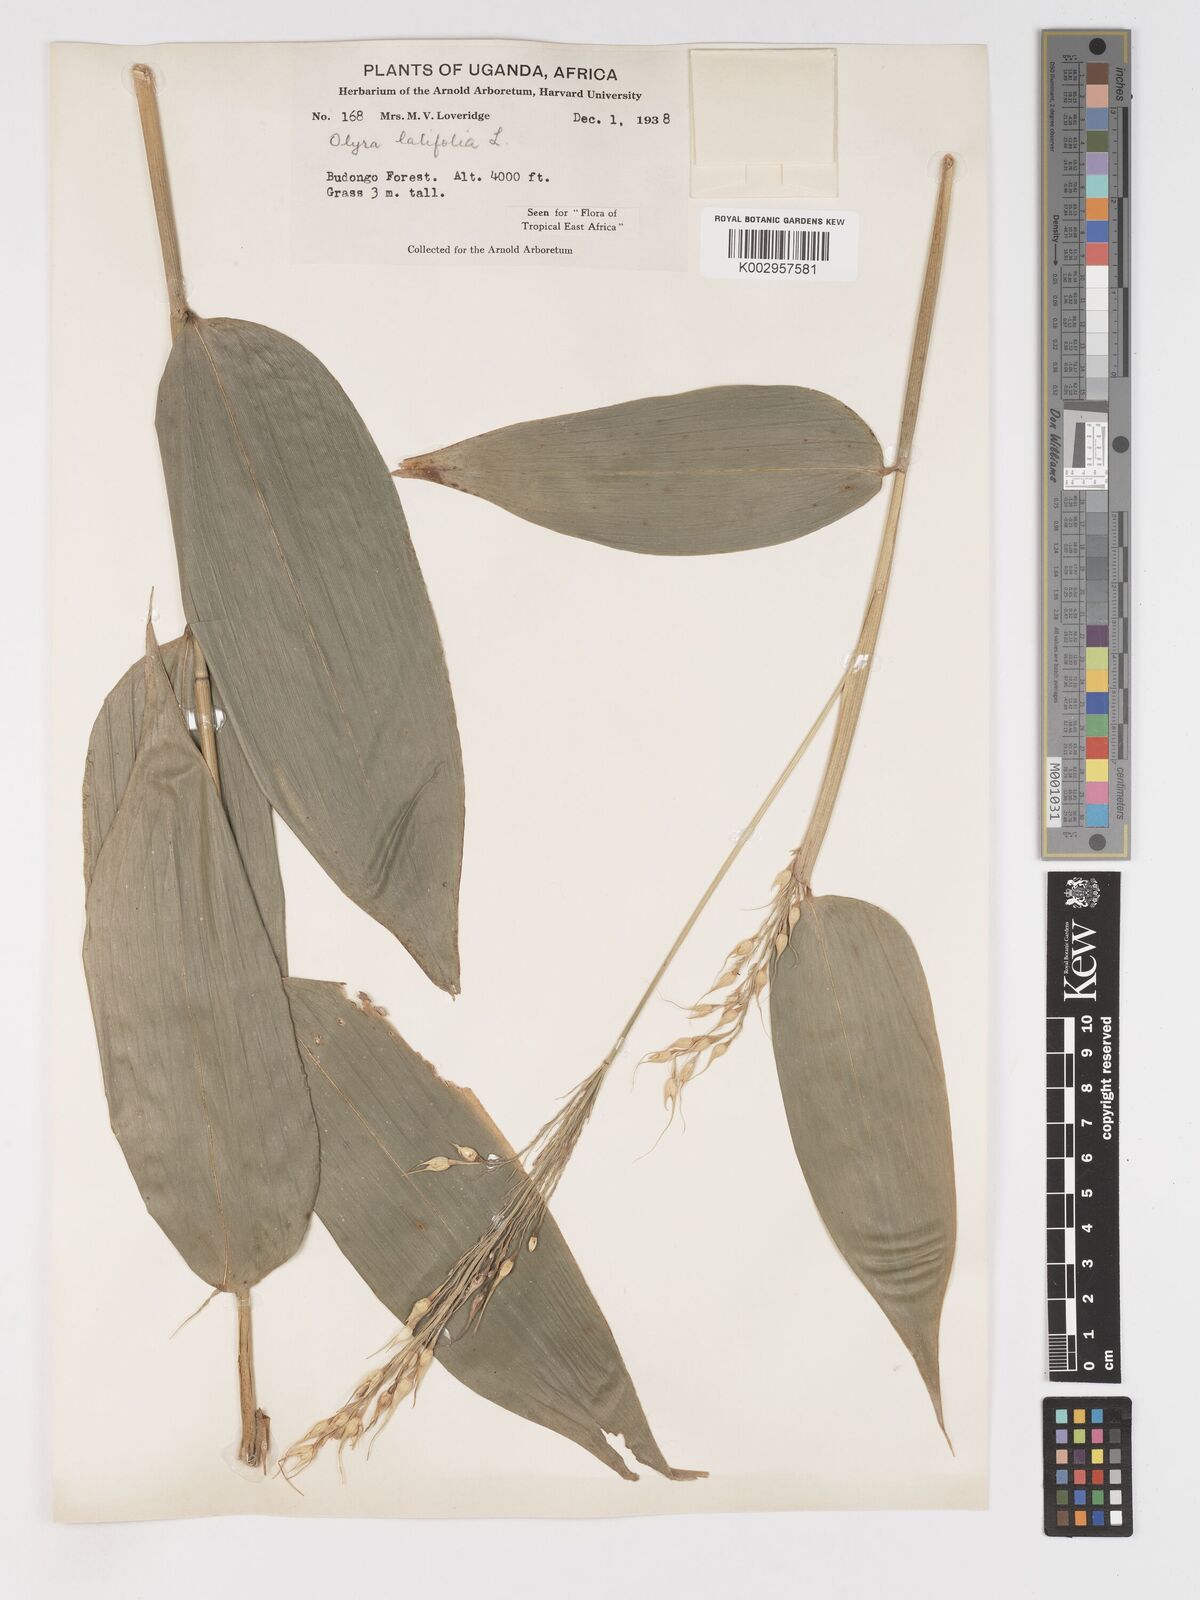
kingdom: Plantae
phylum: Tracheophyta
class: Liliopsida
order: Poales
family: Poaceae
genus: Olyra
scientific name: Olyra latifolia
